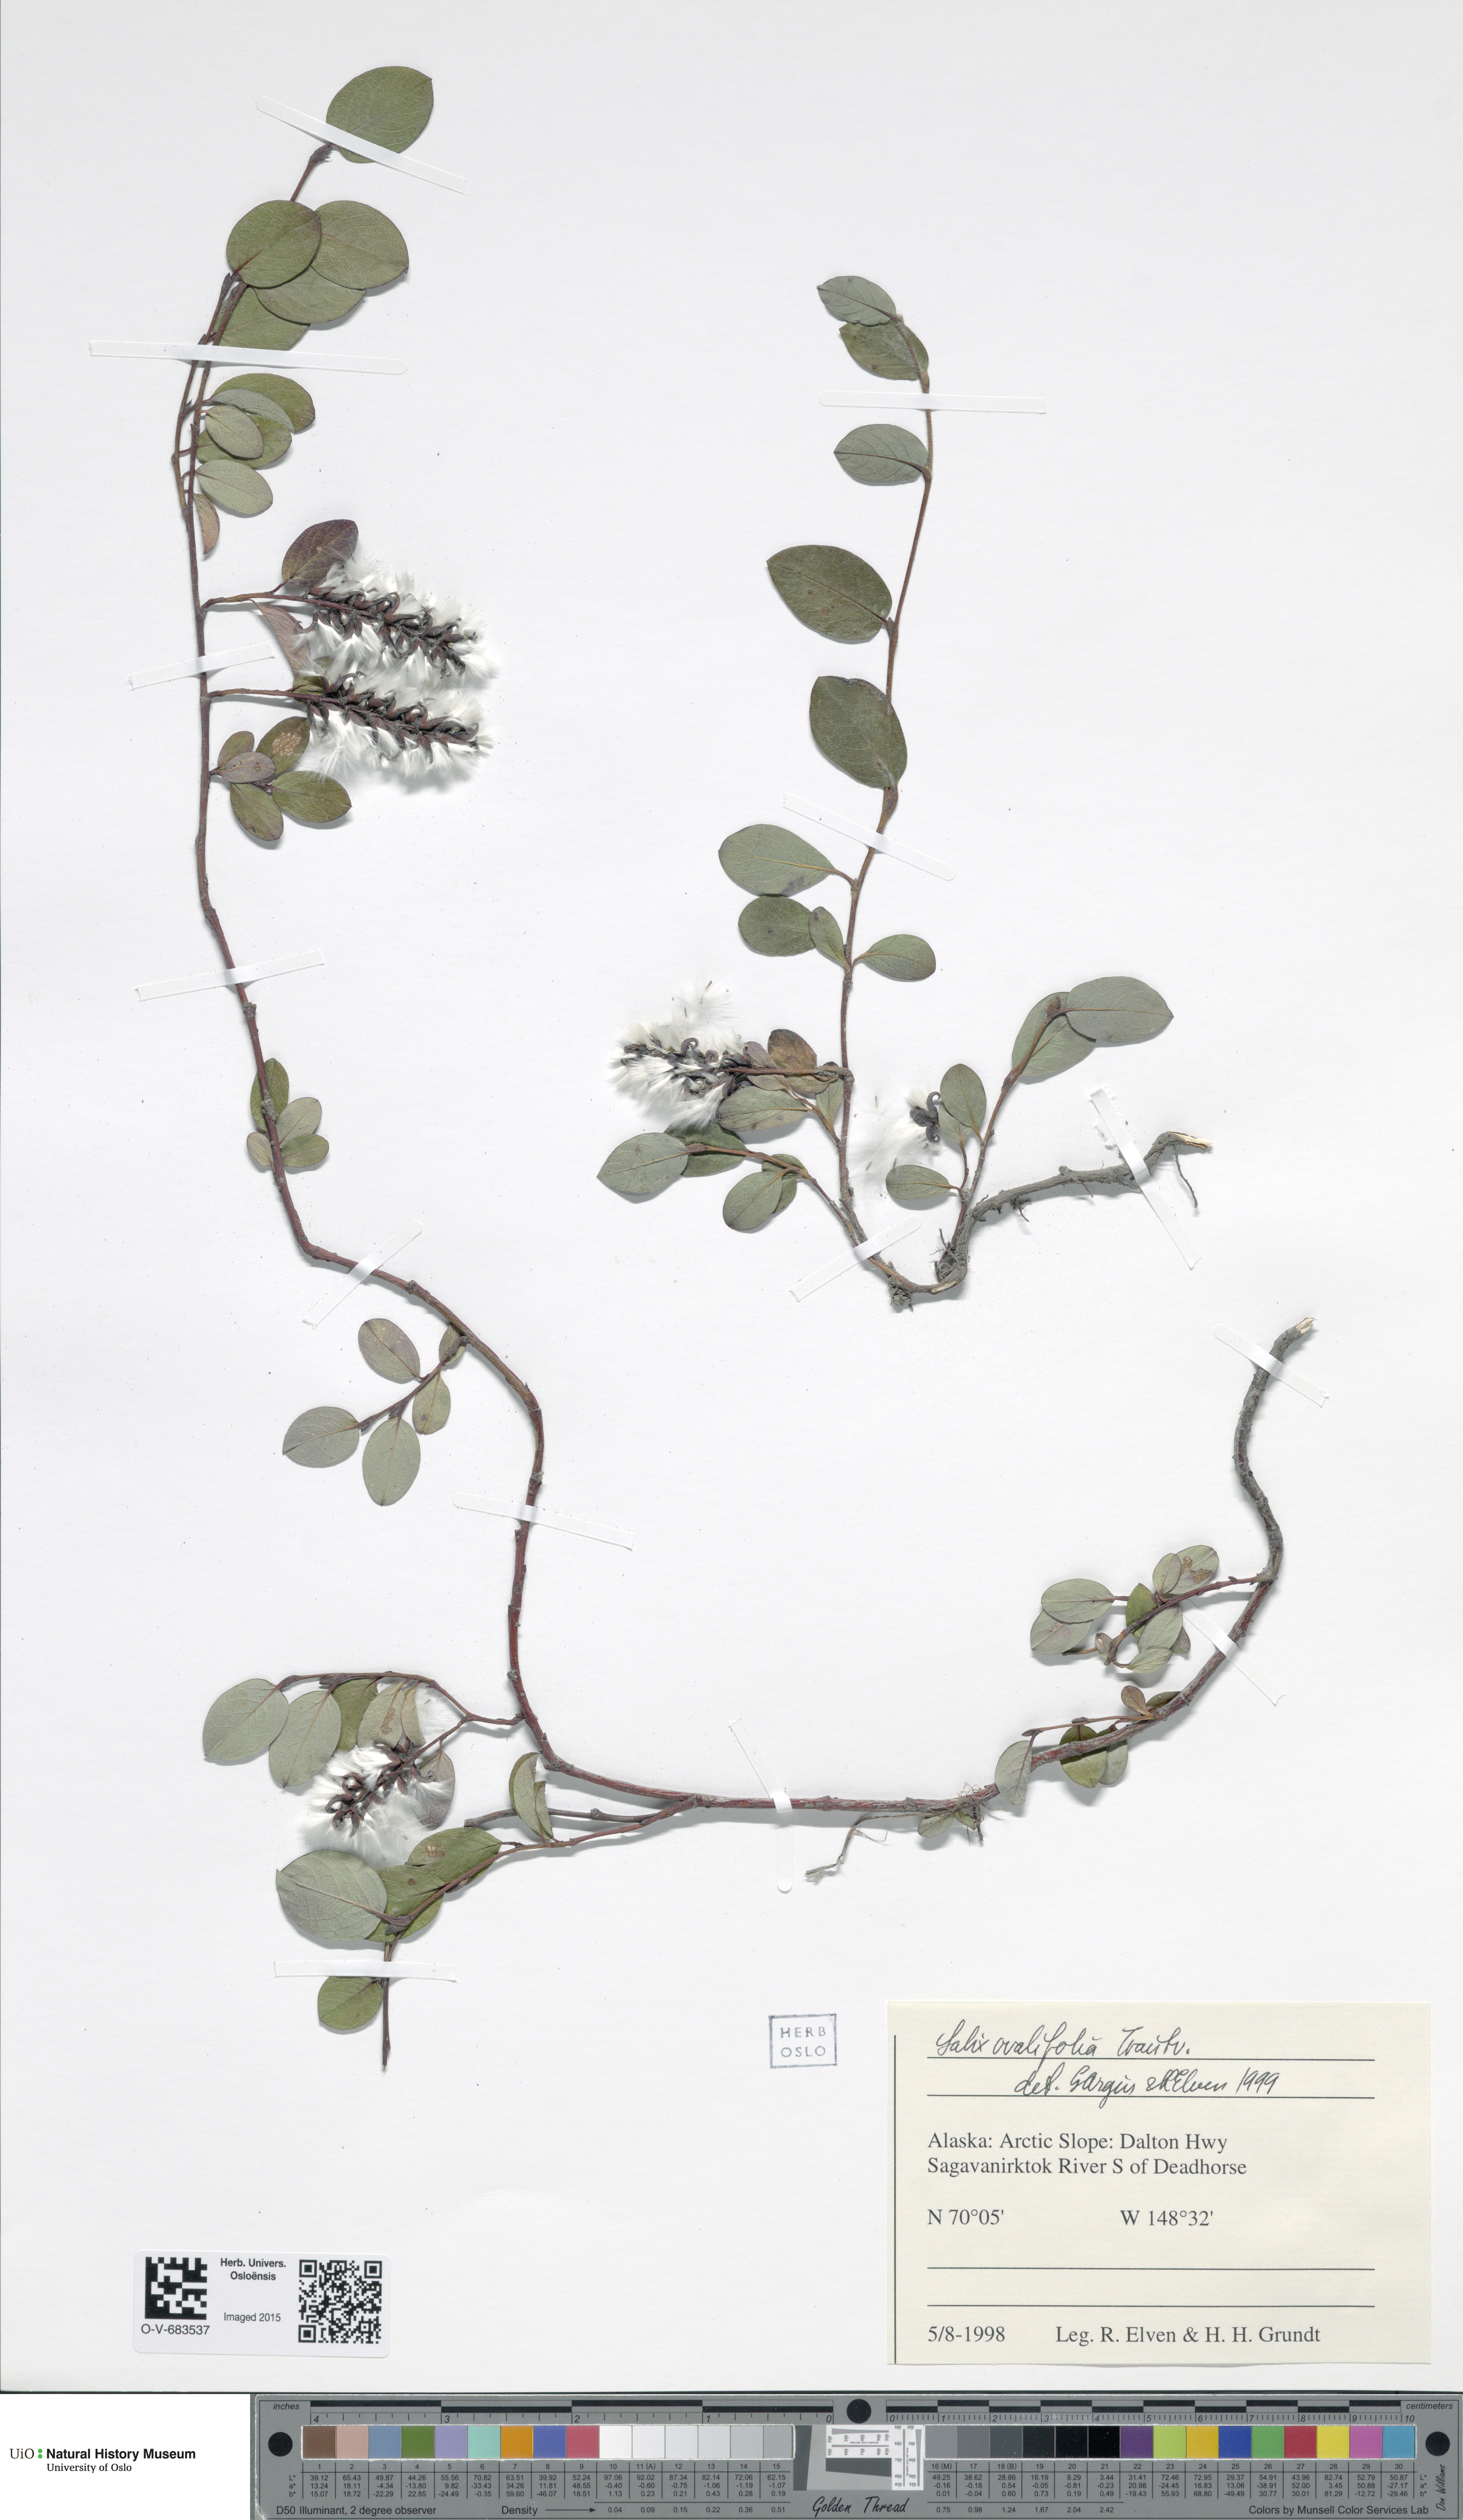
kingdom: Plantae
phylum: Tracheophyta
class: Magnoliopsida
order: Malpighiales
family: Salicaceae
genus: Salix
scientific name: Salix ovalifolia
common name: Arctic seashore willow
